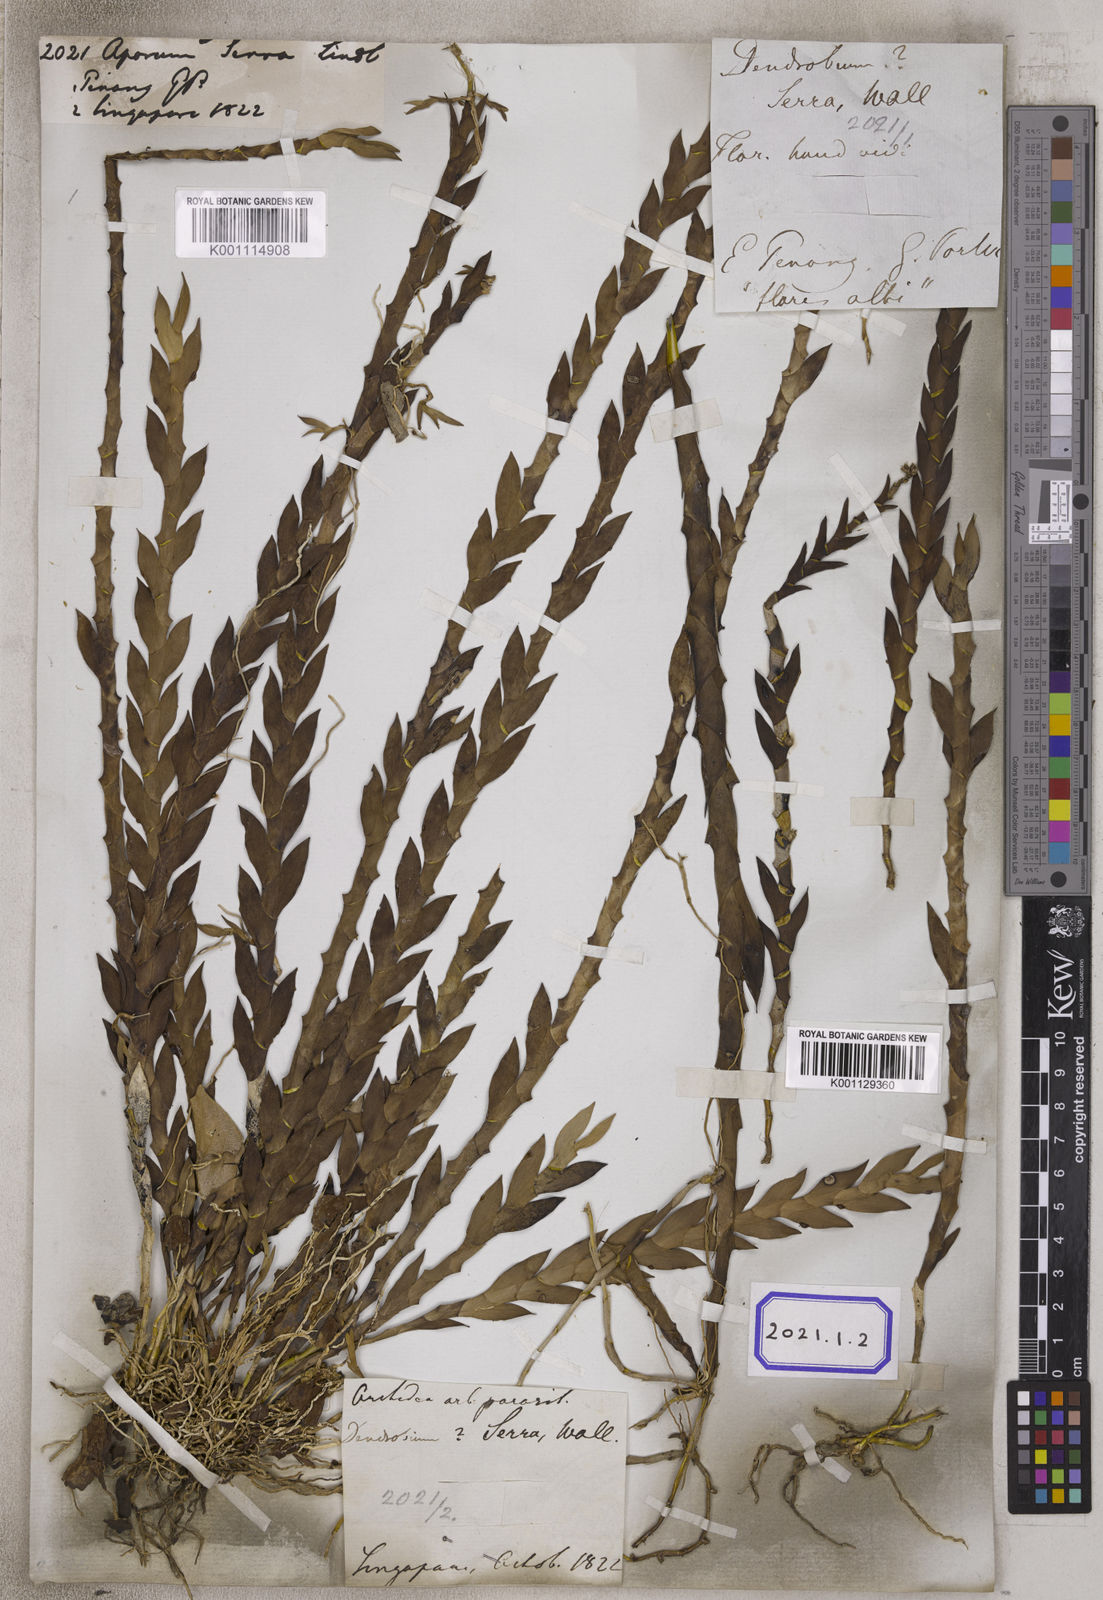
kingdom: Plantae
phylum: Tracheophyta
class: Liliopsida
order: Asparagales
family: Orchidaceae
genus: Dendrobium
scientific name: Dendrobium aloifolium
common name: Aloe-like dendrobium
